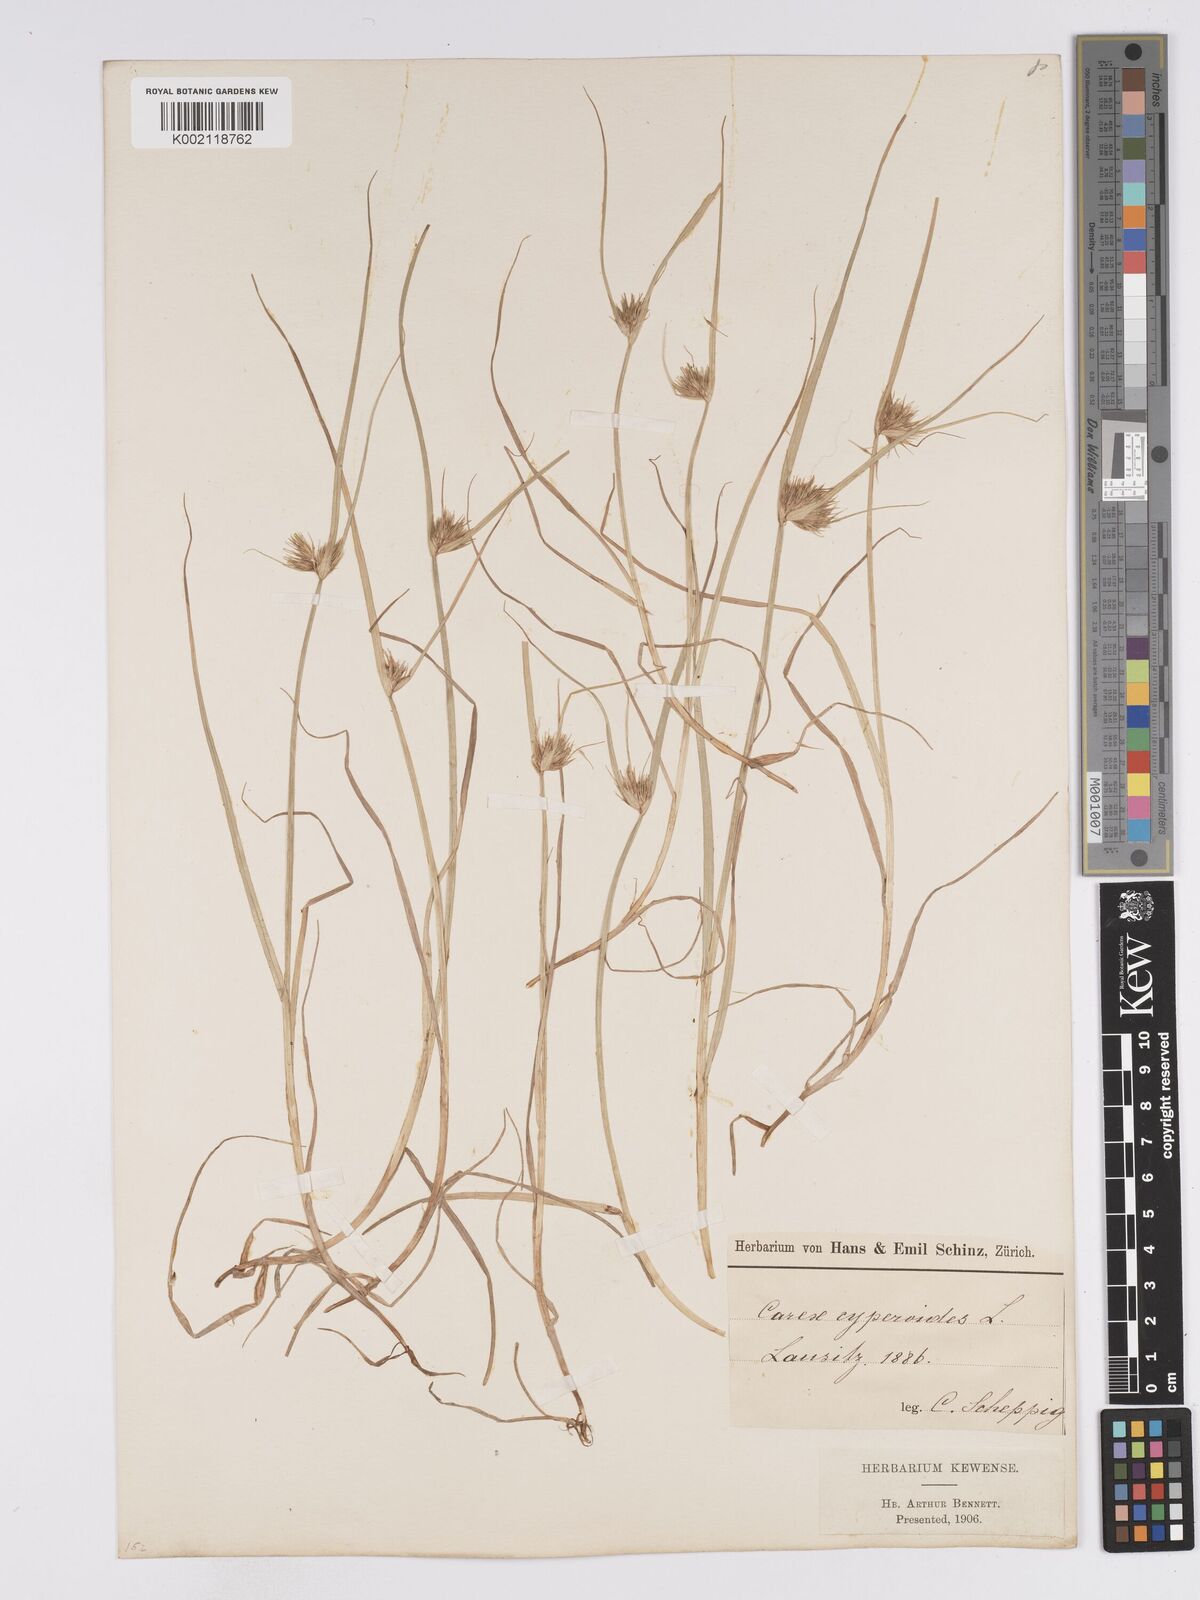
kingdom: Plantae
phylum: Tracheophyta
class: Liliopsida
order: Poales
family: Cyperaceae
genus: Carex
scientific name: Carex bohemica
